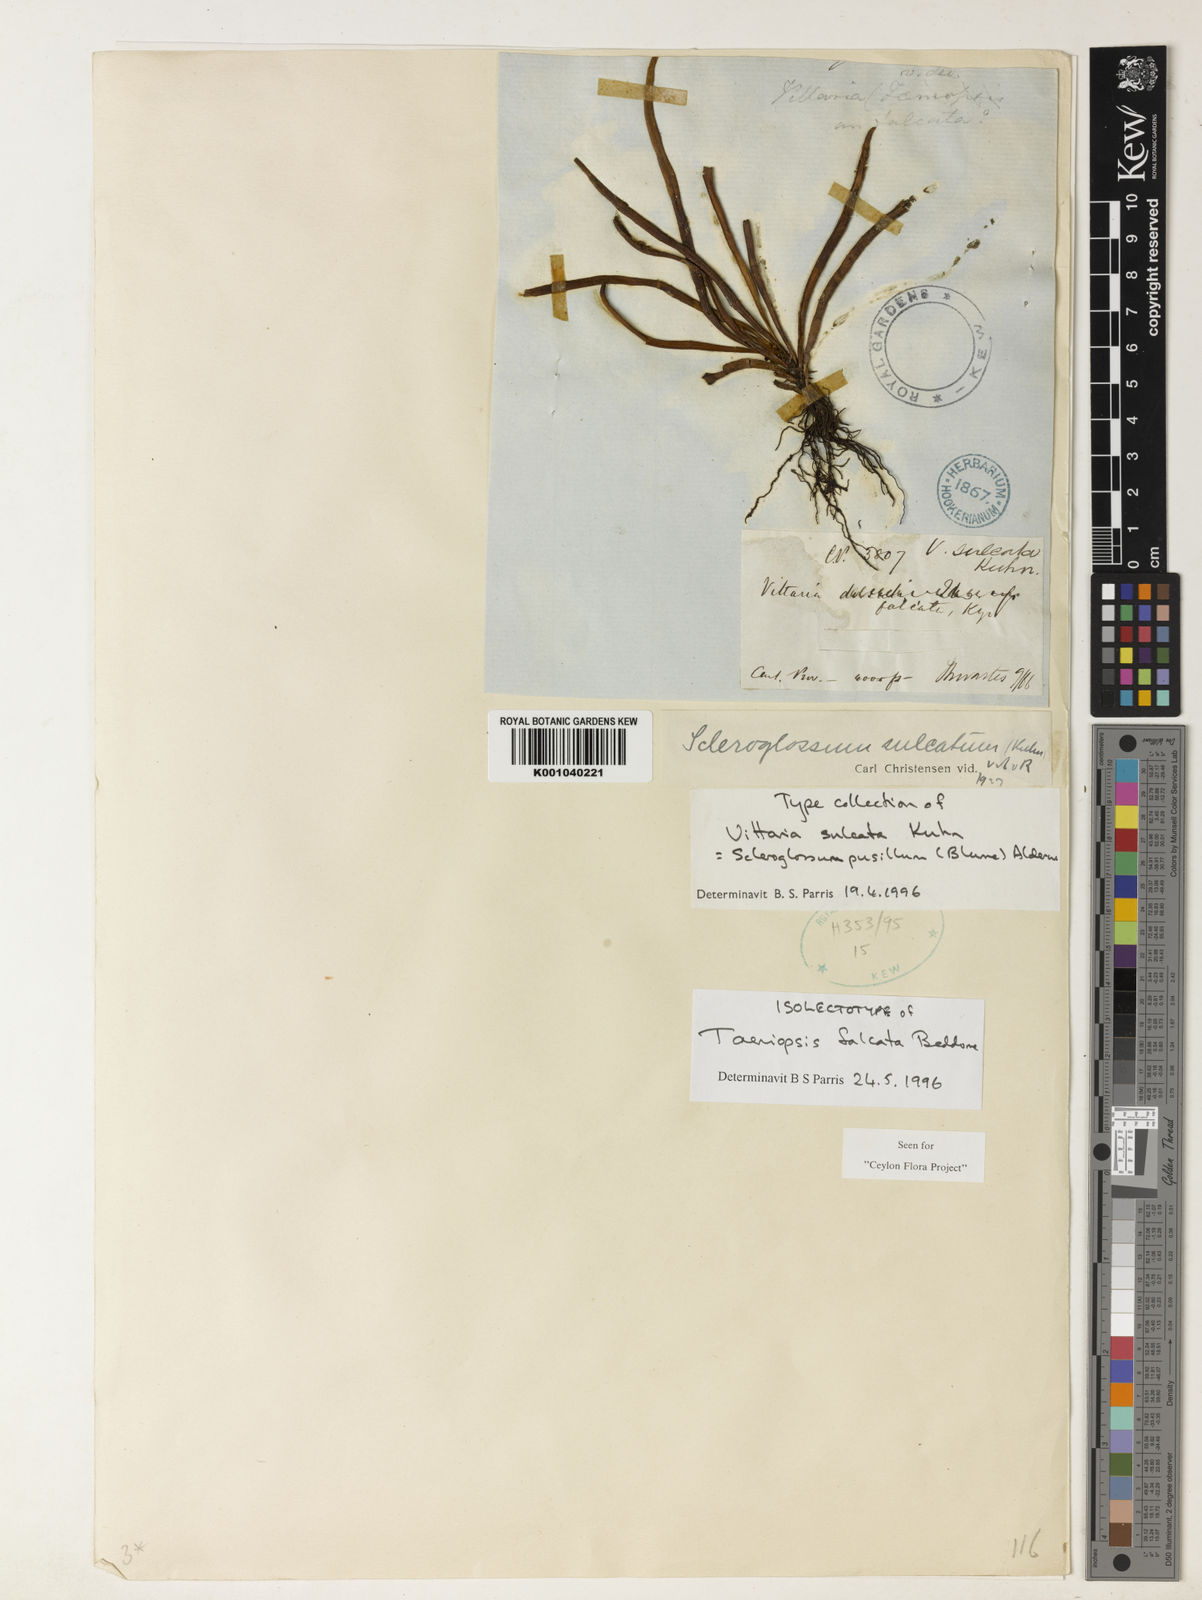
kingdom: Plantae
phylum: Tracheophyta
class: Polypodiopsida
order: Polypodiales
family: Polypodiaceae
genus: Scleroglossum
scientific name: Scleroglossum sulcatum
